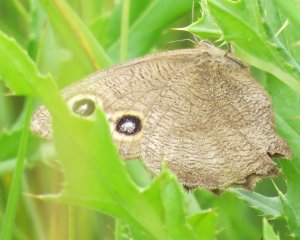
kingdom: Animalia
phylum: Arthropoda
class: Insecta
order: Lepidoptera
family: Nymphalidae
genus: Cercyonis
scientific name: Cercyonis pegala
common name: Common Wood-Nymph
